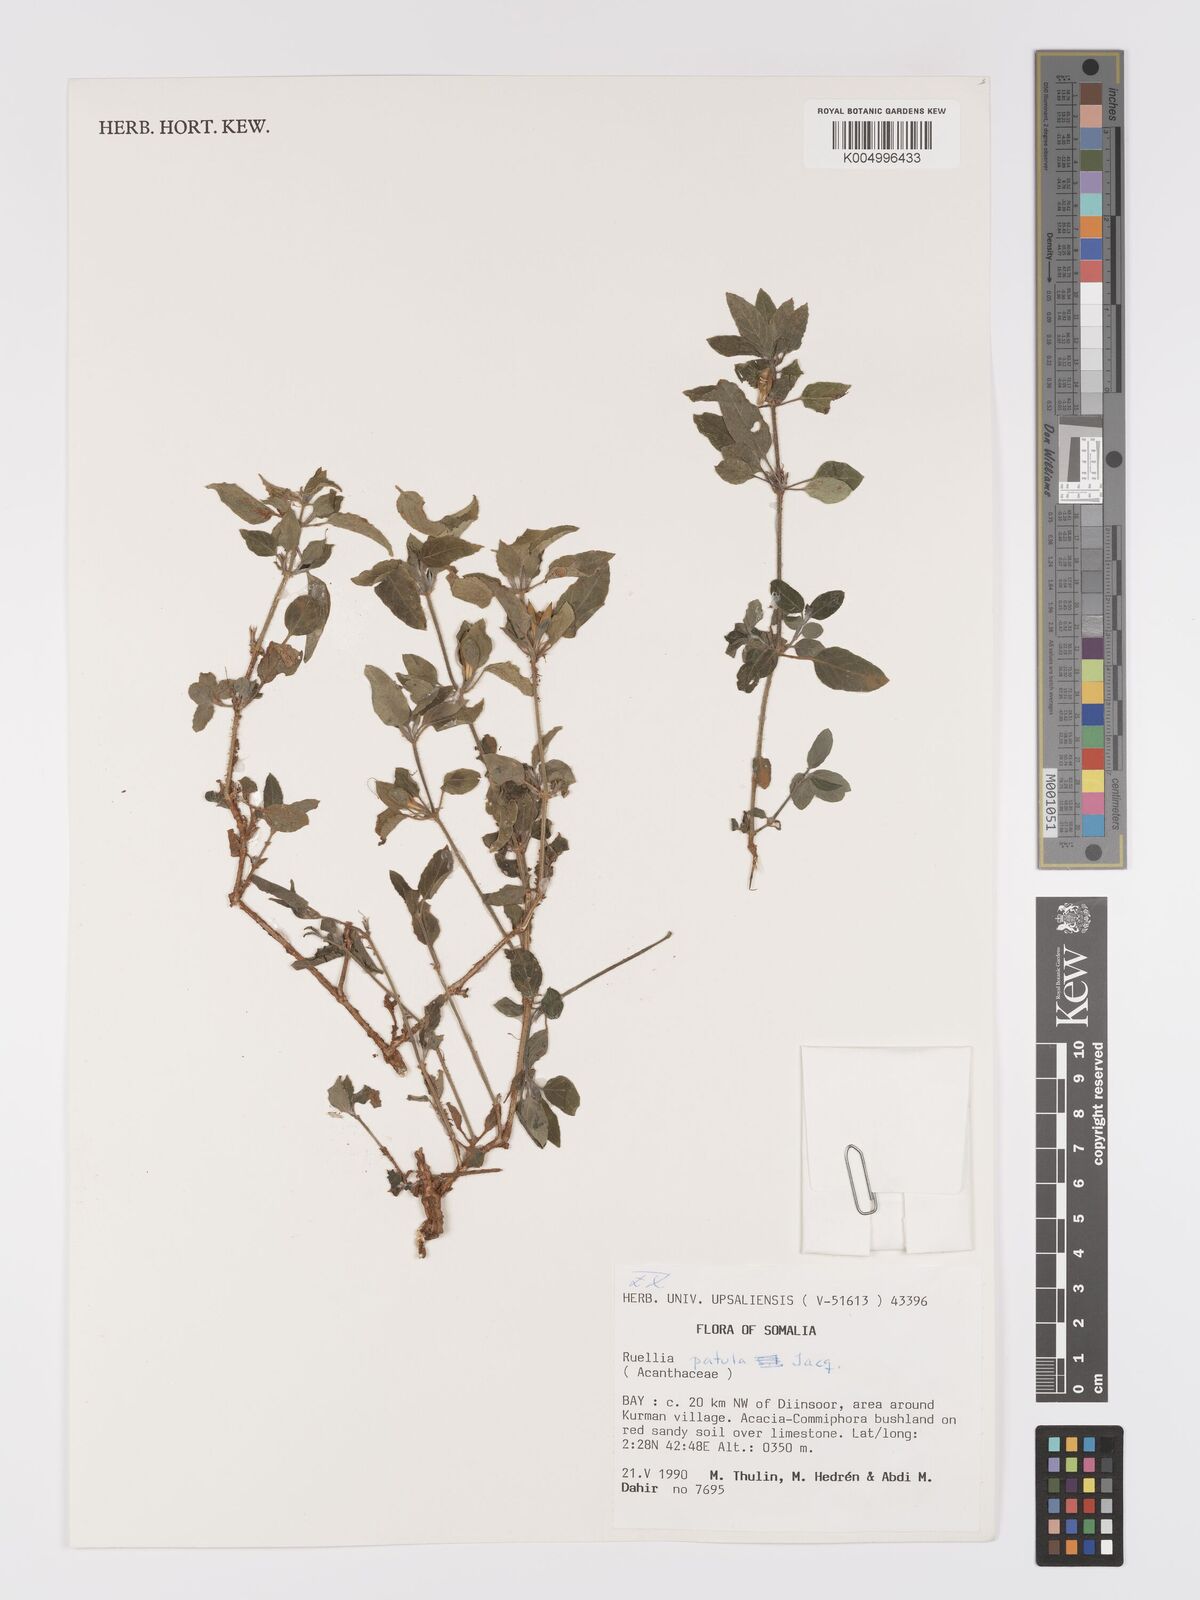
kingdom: Plantae
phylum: Tracheophyta
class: Magnoliopsida
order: Lamiales
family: Acanthaceae
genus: Ruellia
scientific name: Ruellia patula
